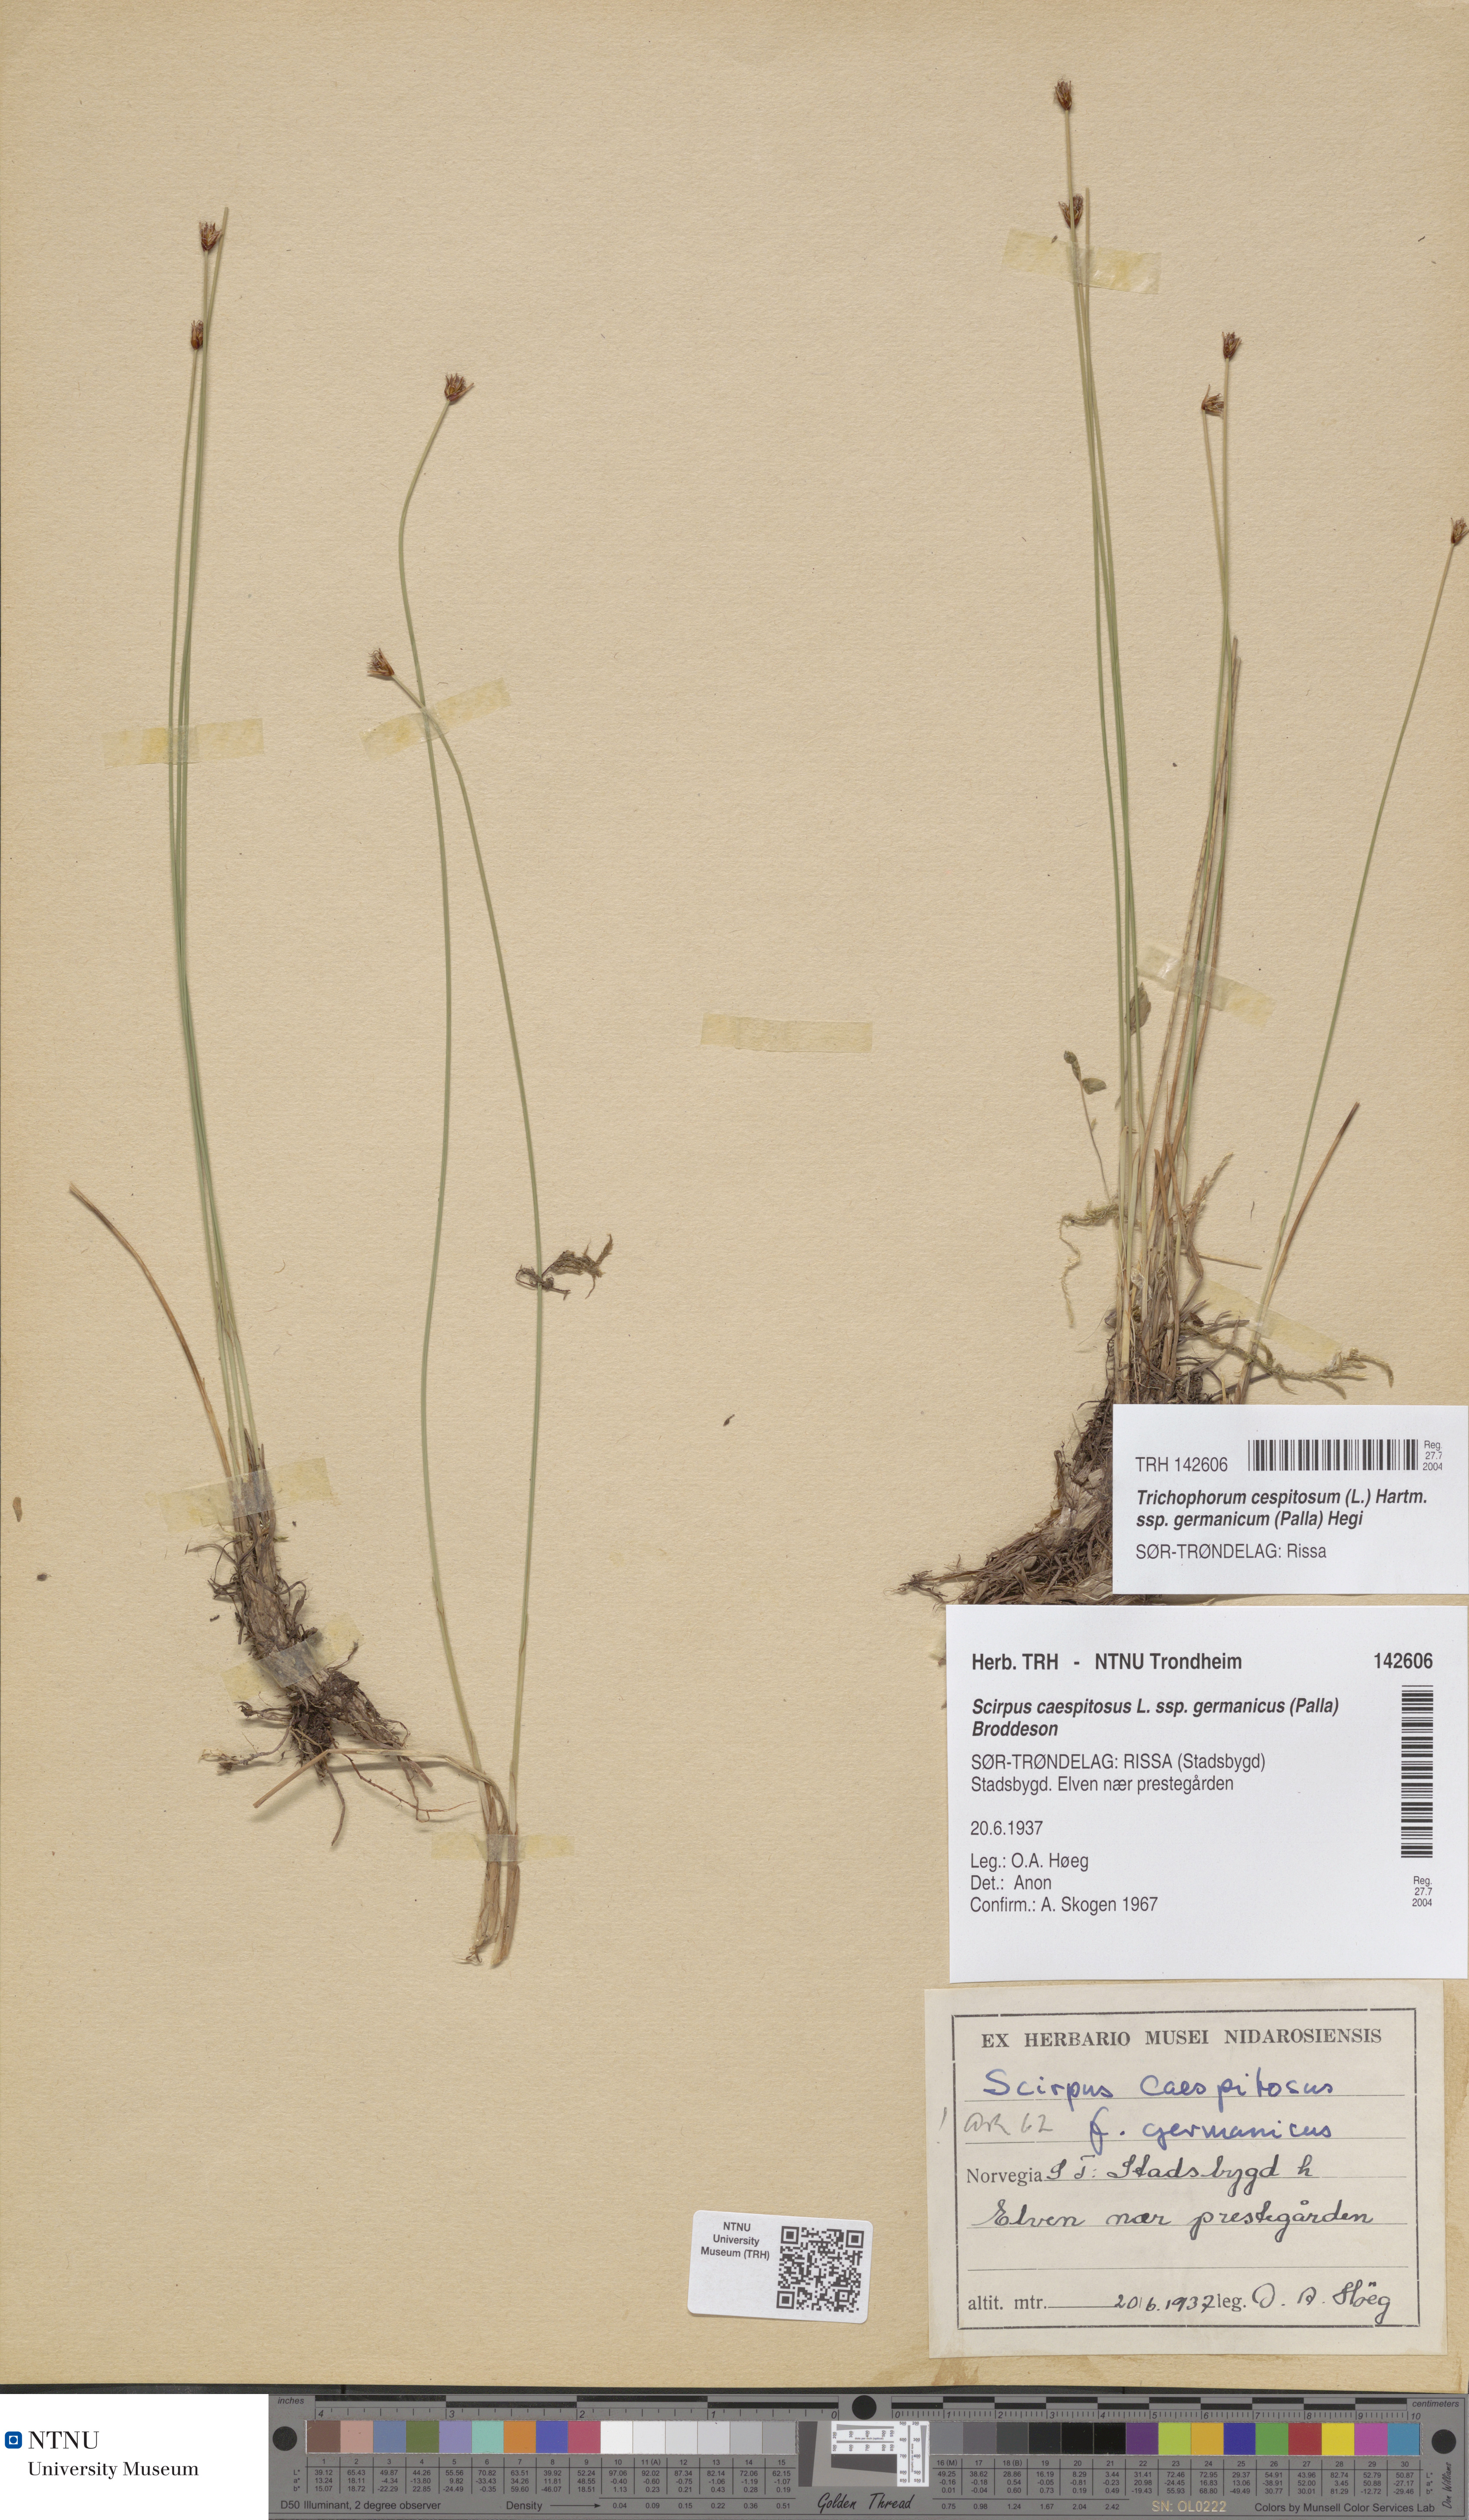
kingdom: Plantae
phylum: Tracheophyta
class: Liliopsida
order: Poales
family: Cyperaceae
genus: Trichophorum
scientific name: Trichophorum cespitosum
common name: Cespitose bulrush
